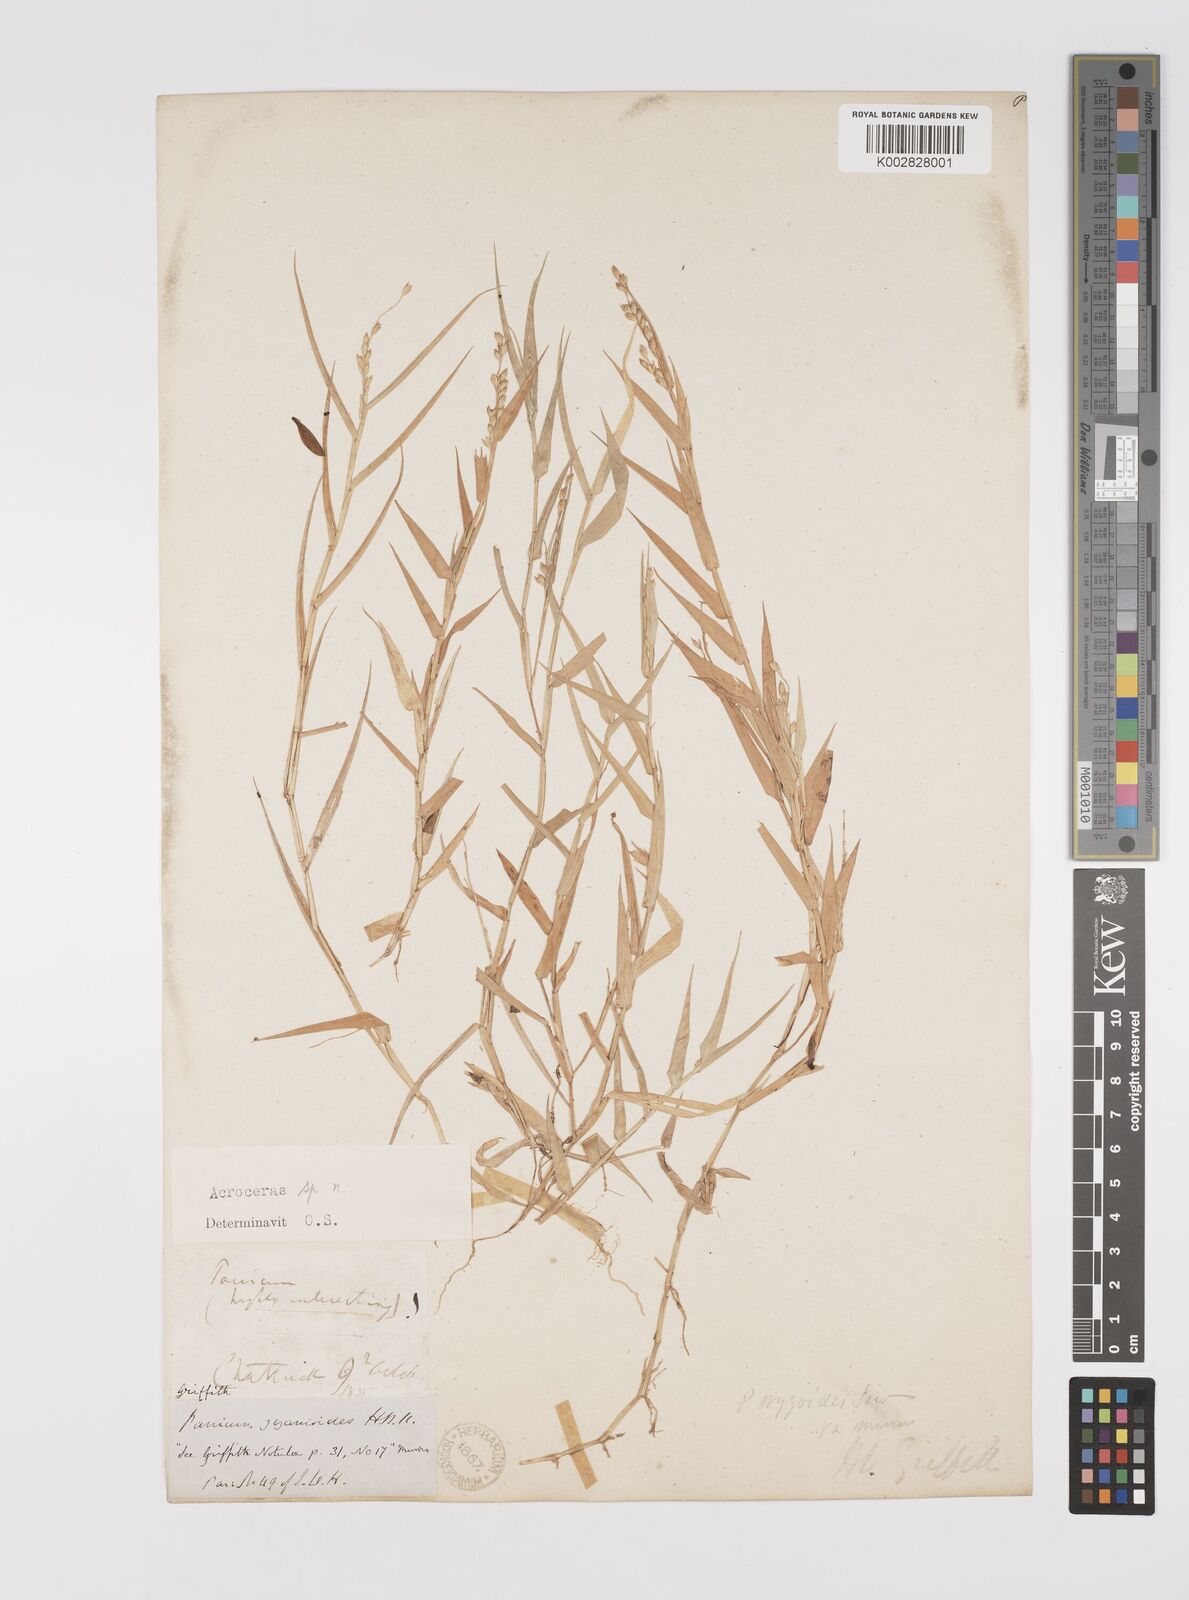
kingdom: Plantae
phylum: Tracheophyta
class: Liliopsida
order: Poales
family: Poaceae
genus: Acroceras
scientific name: Acroceras munroanum
